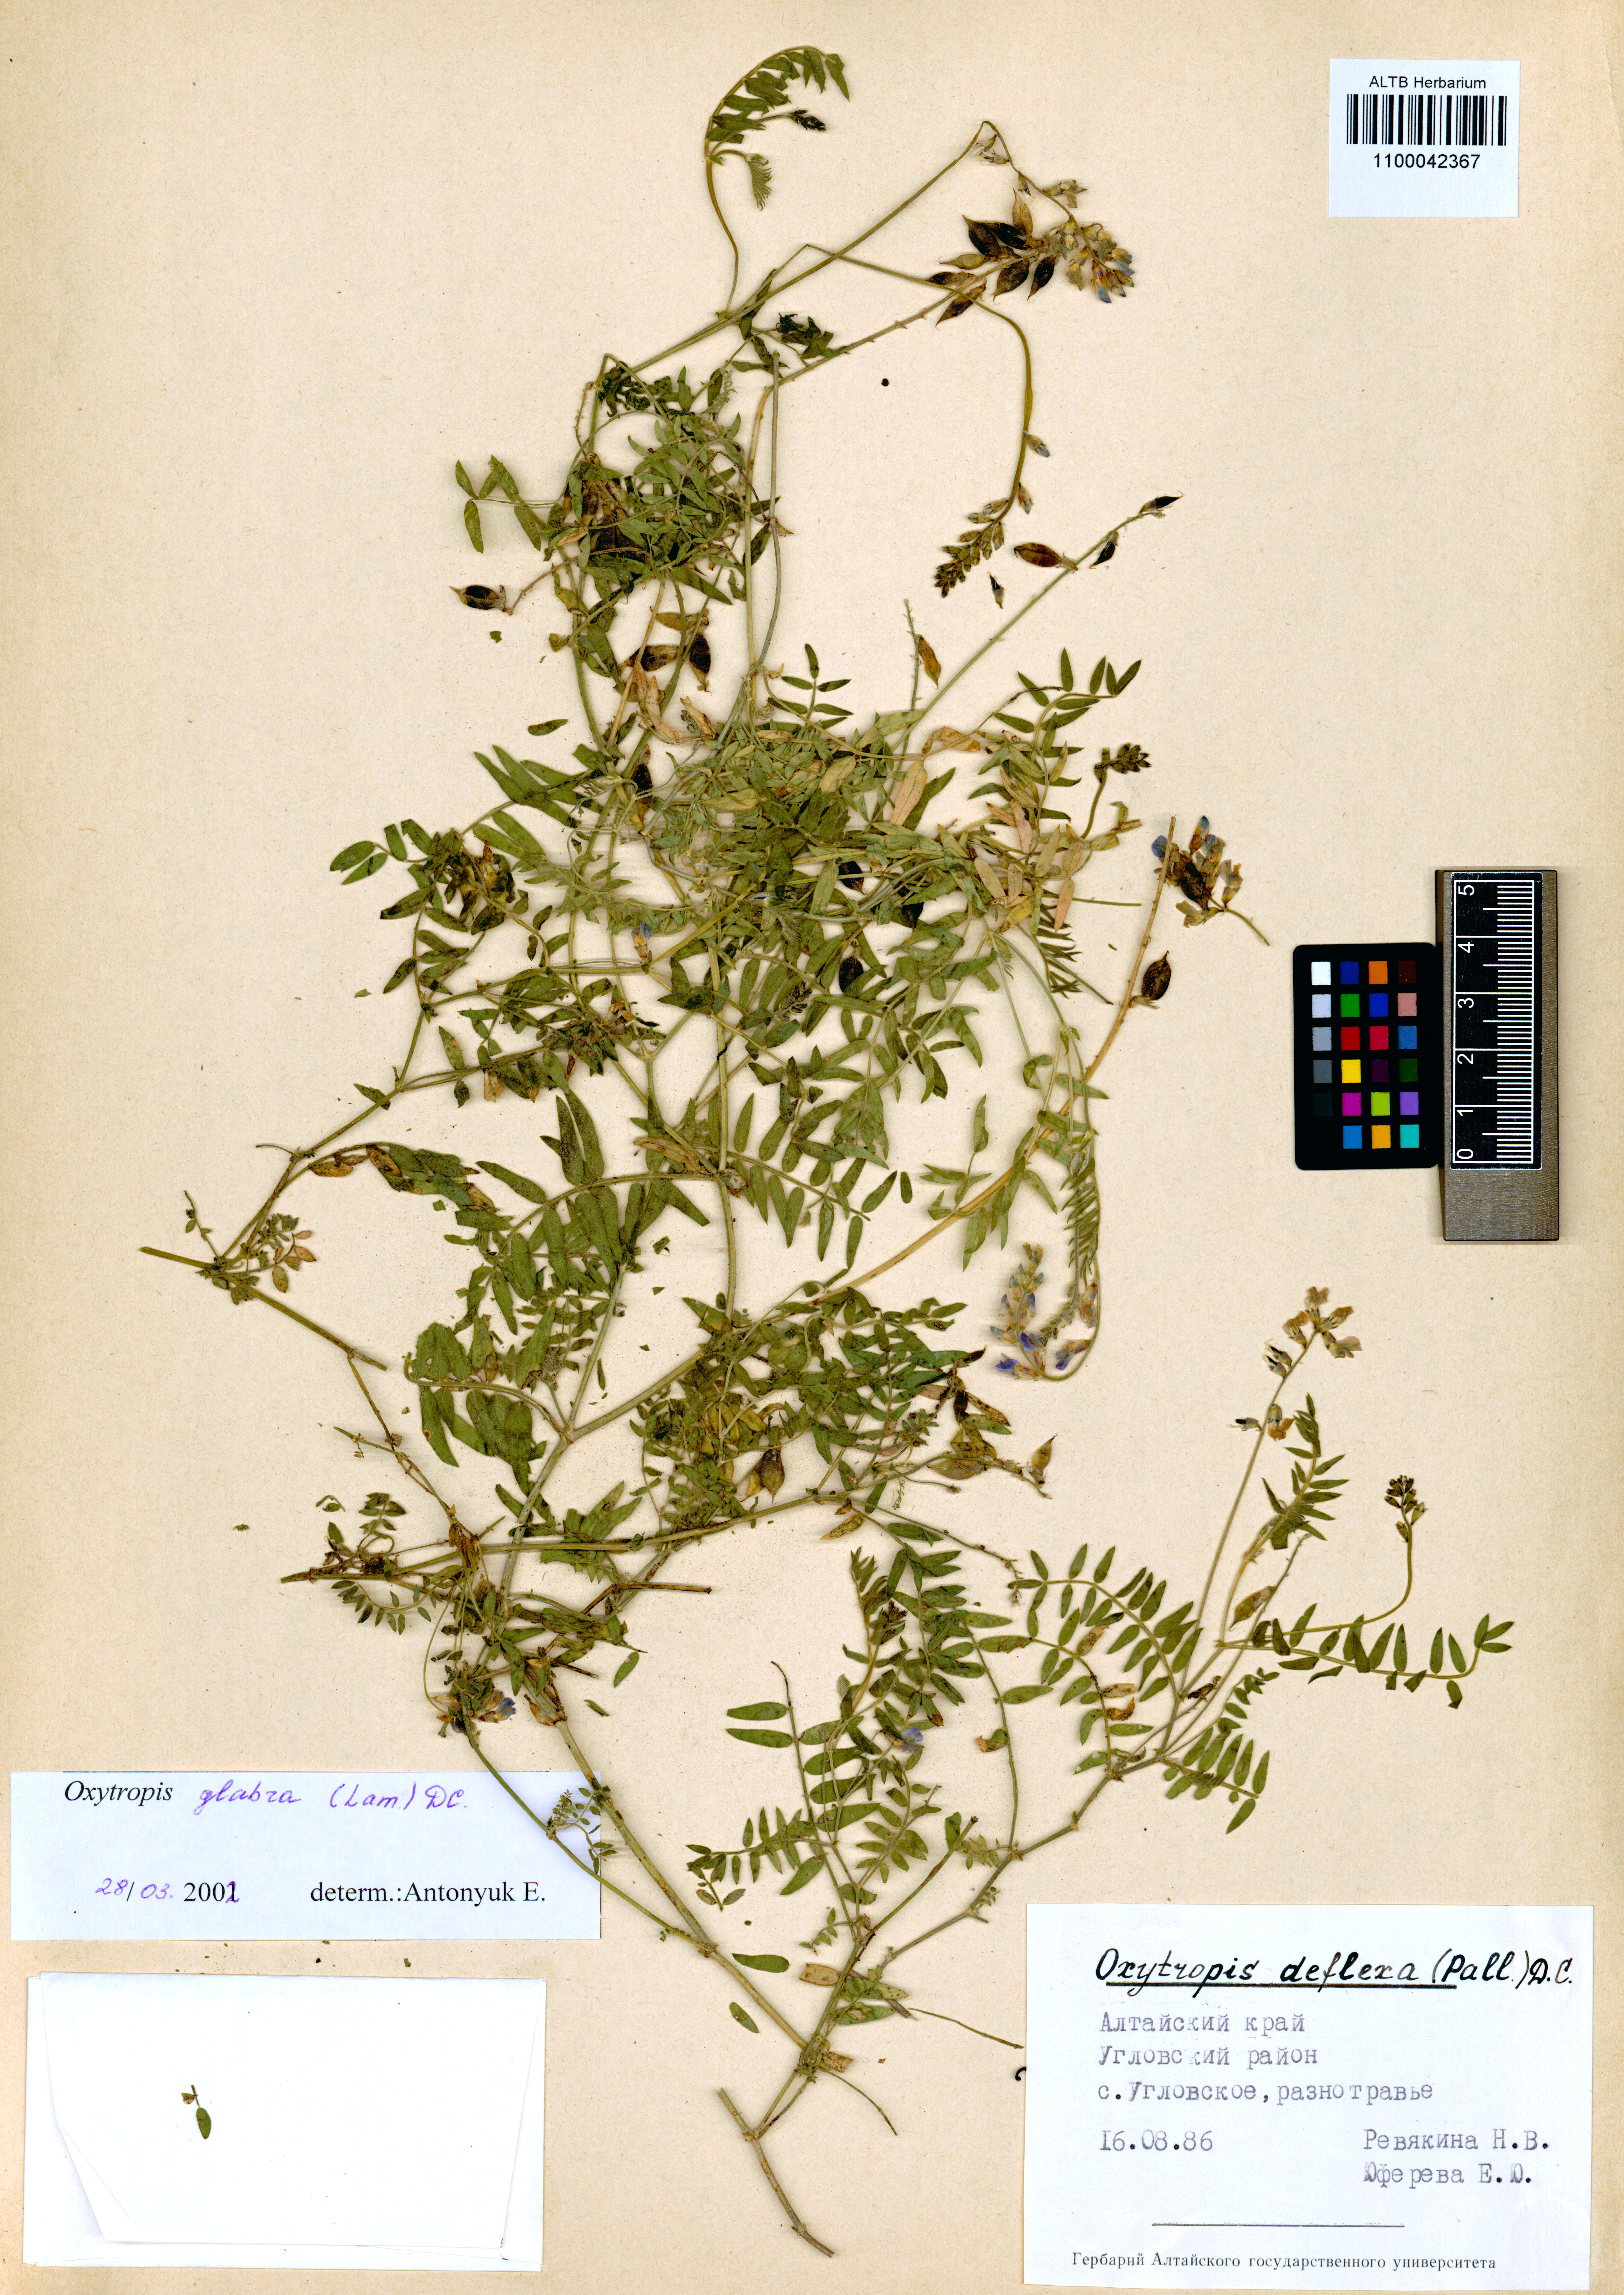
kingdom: Plantae
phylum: Tracheophyta
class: Magnoliopsida
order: Fabales
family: Fabaceae
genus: Oxytropis
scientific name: Oxytropis glabra
